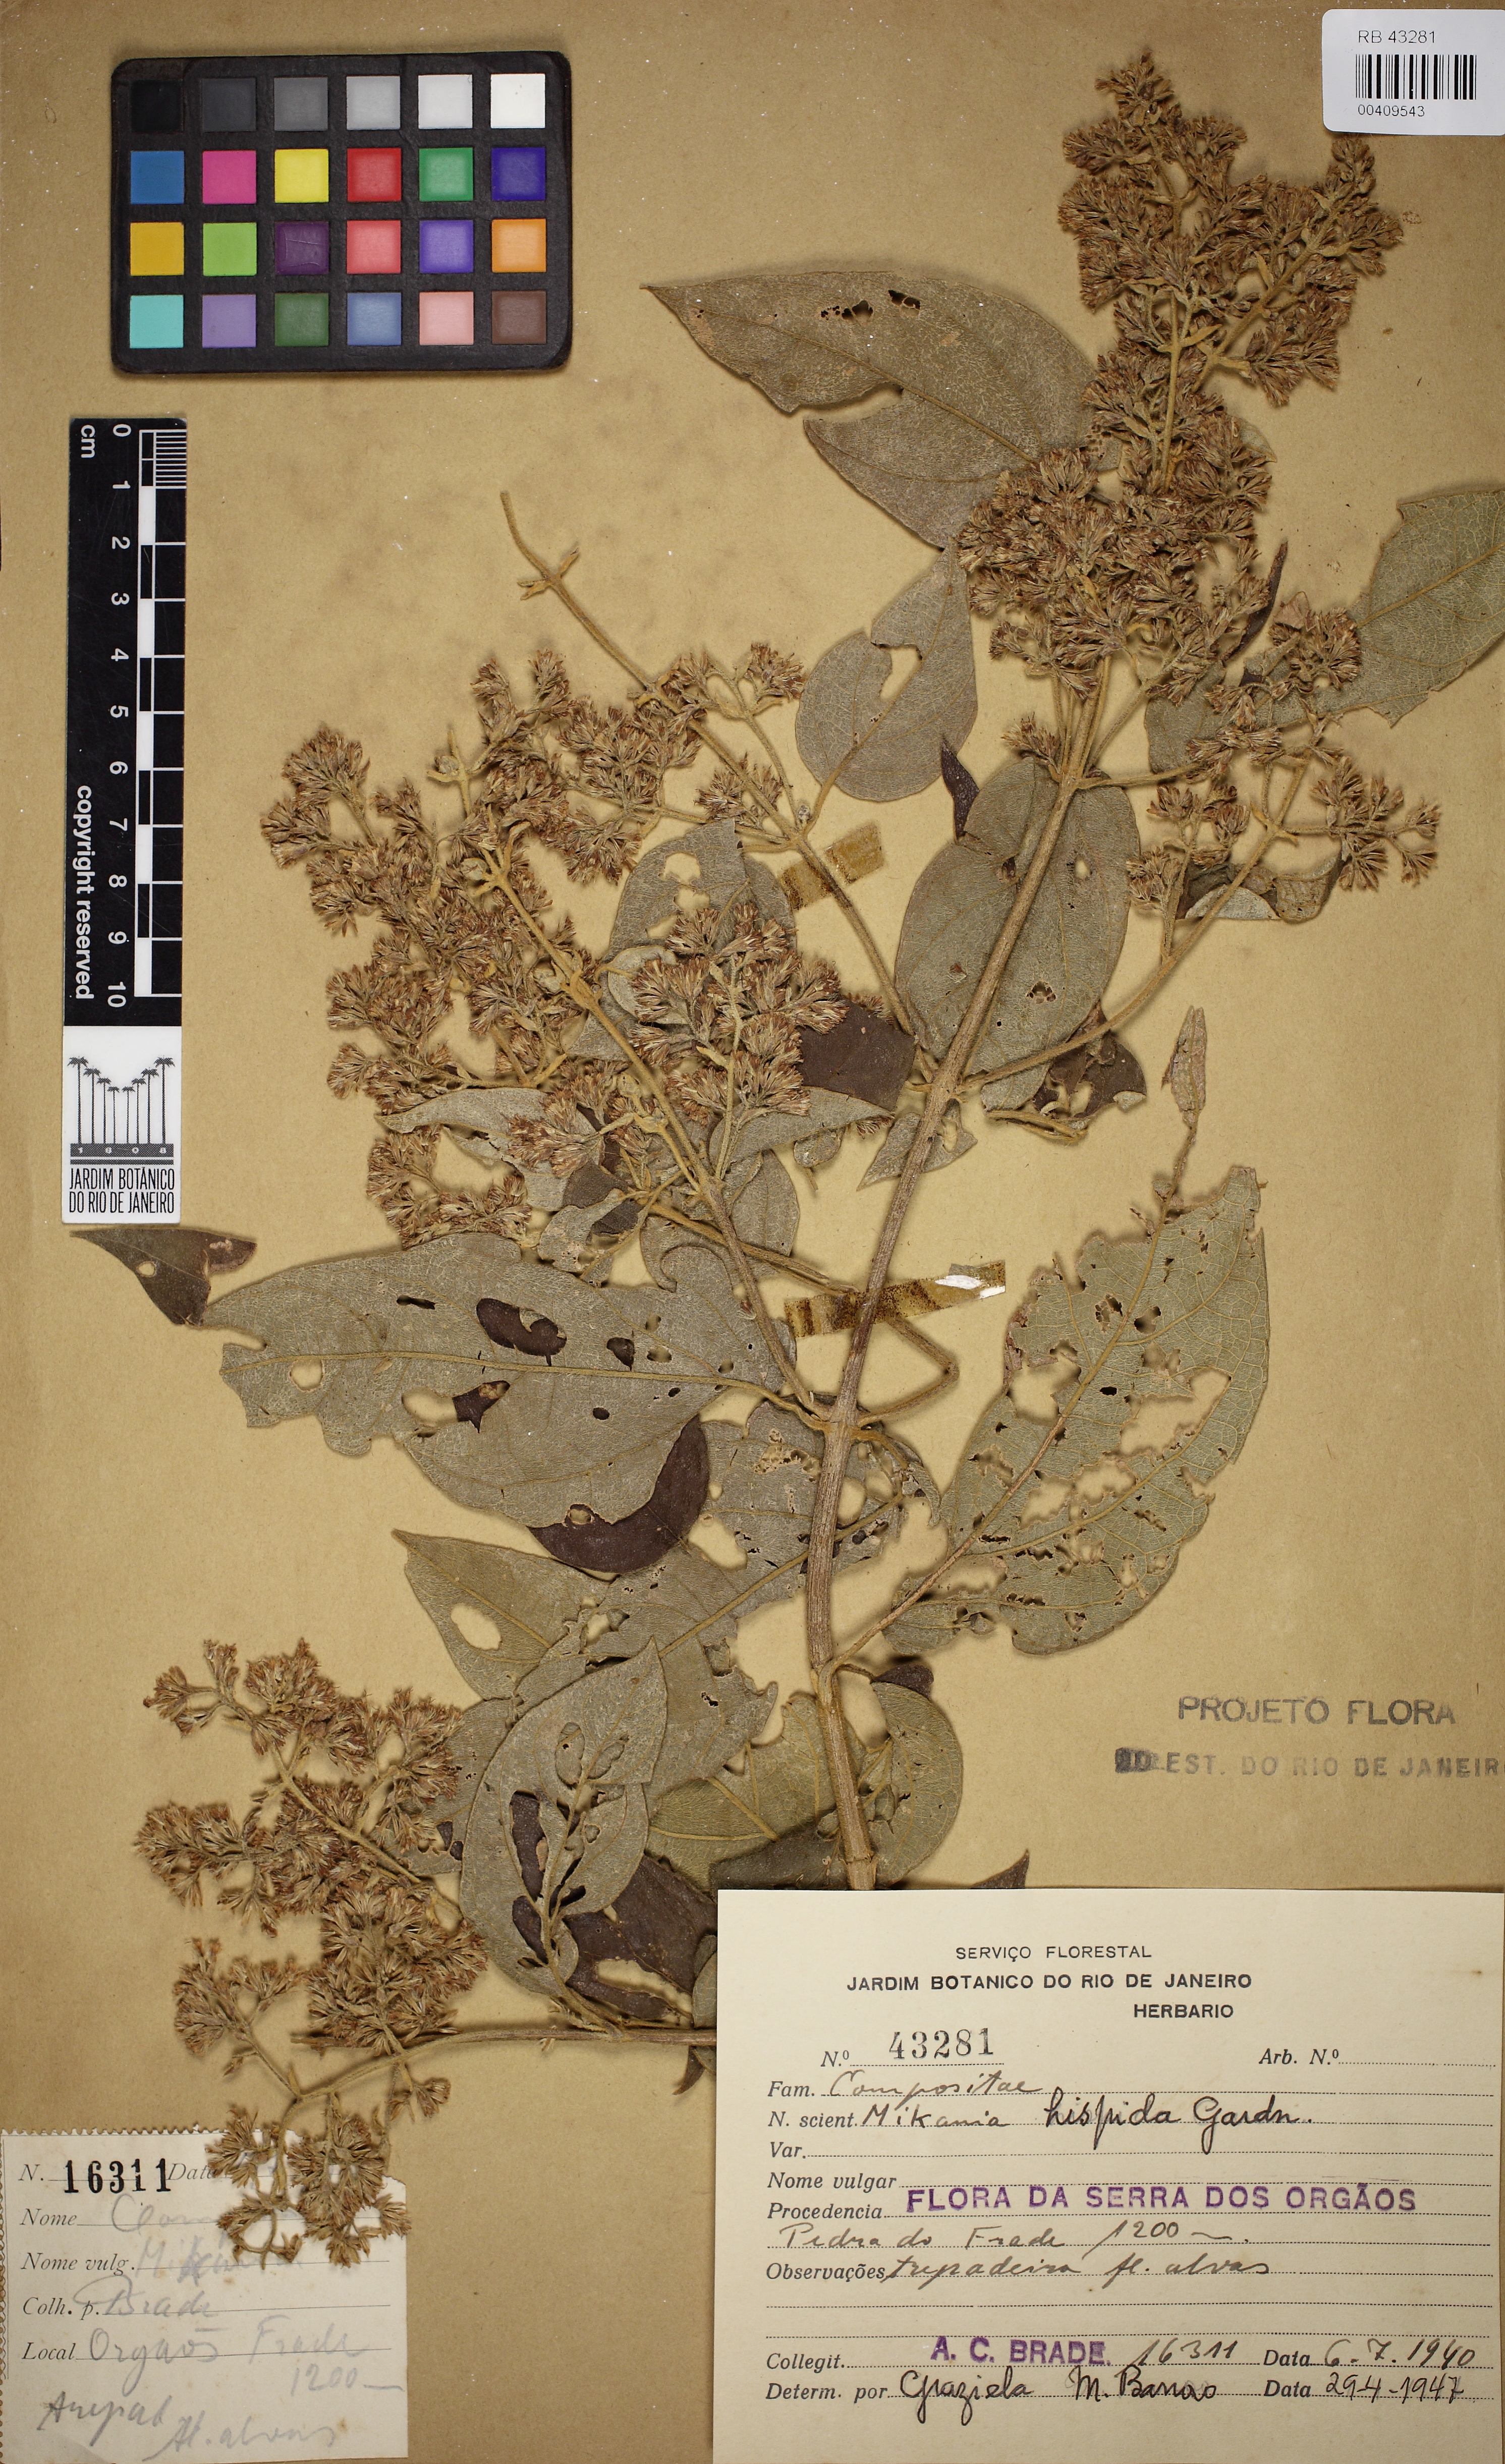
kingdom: Plantae
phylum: Tracheophyta
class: Magnoliopsida
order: Asterales
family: Asteraceae
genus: Mikania
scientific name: Mikania conferta
